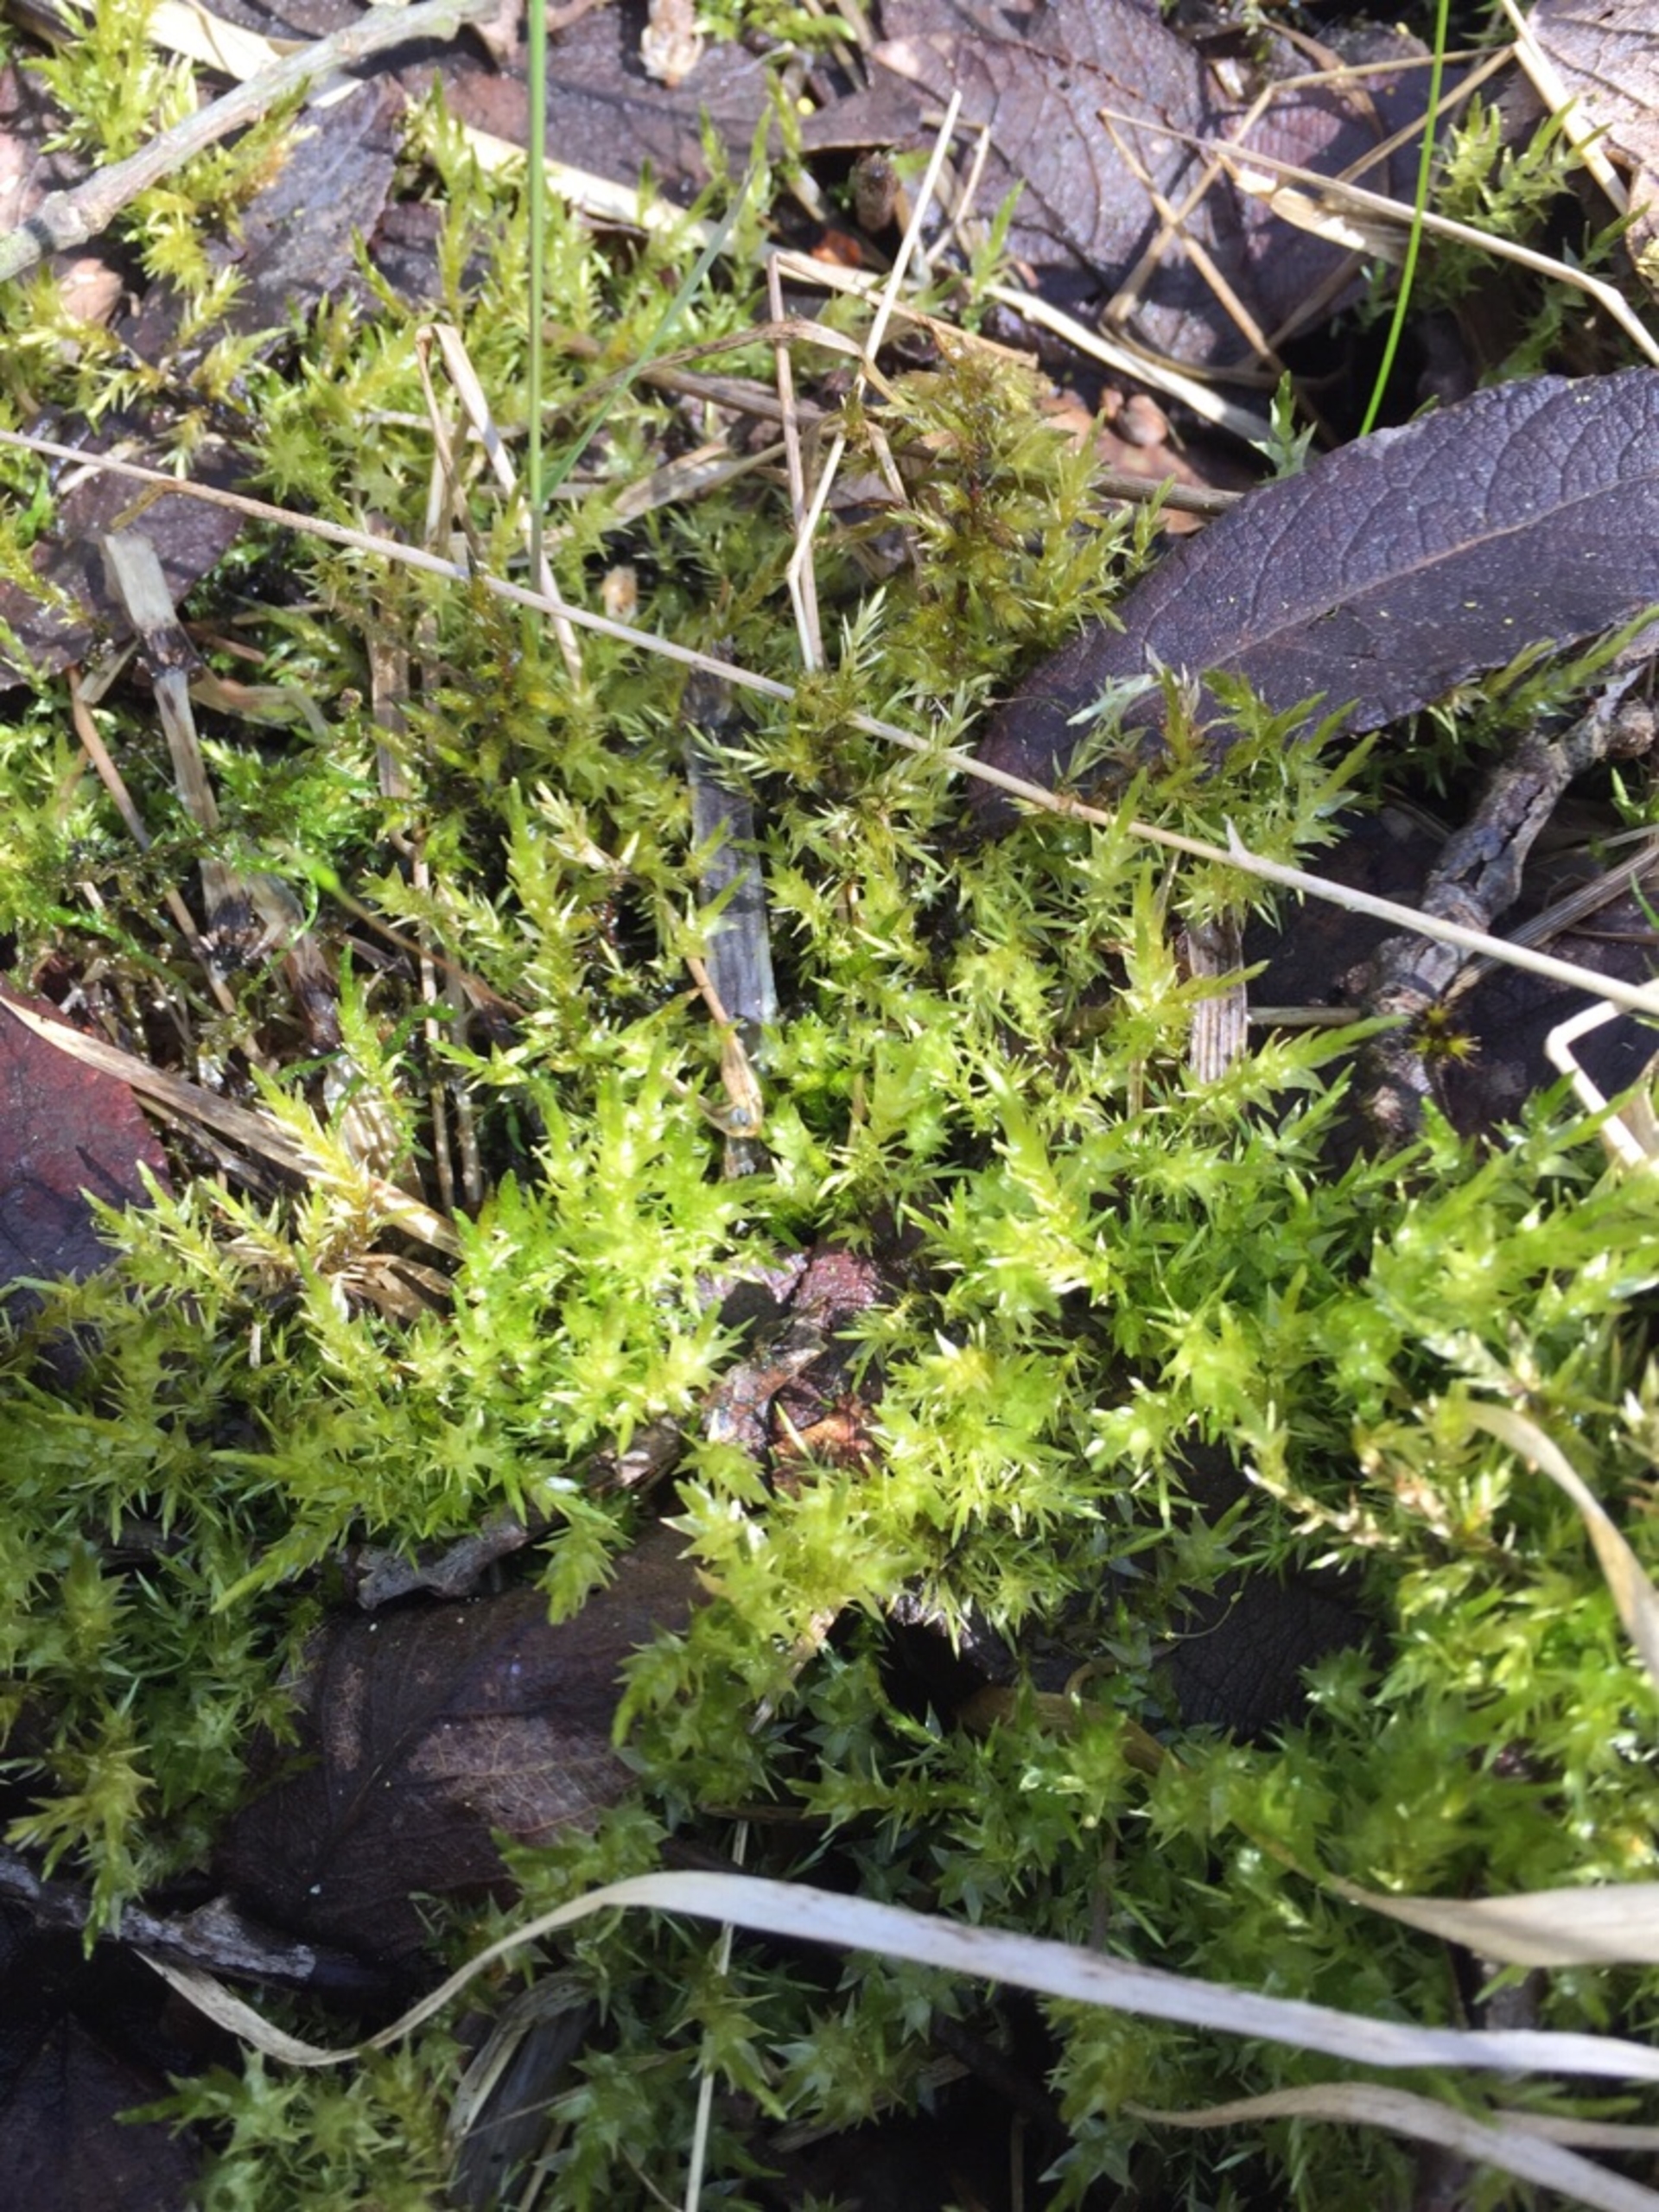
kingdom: Plantae
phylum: Bryophyta
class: Bryopsida
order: Hypnales
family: Calliergonaceae
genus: Calliergon
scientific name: Calliergon cordifolium
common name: Almindelig skebladsmos
